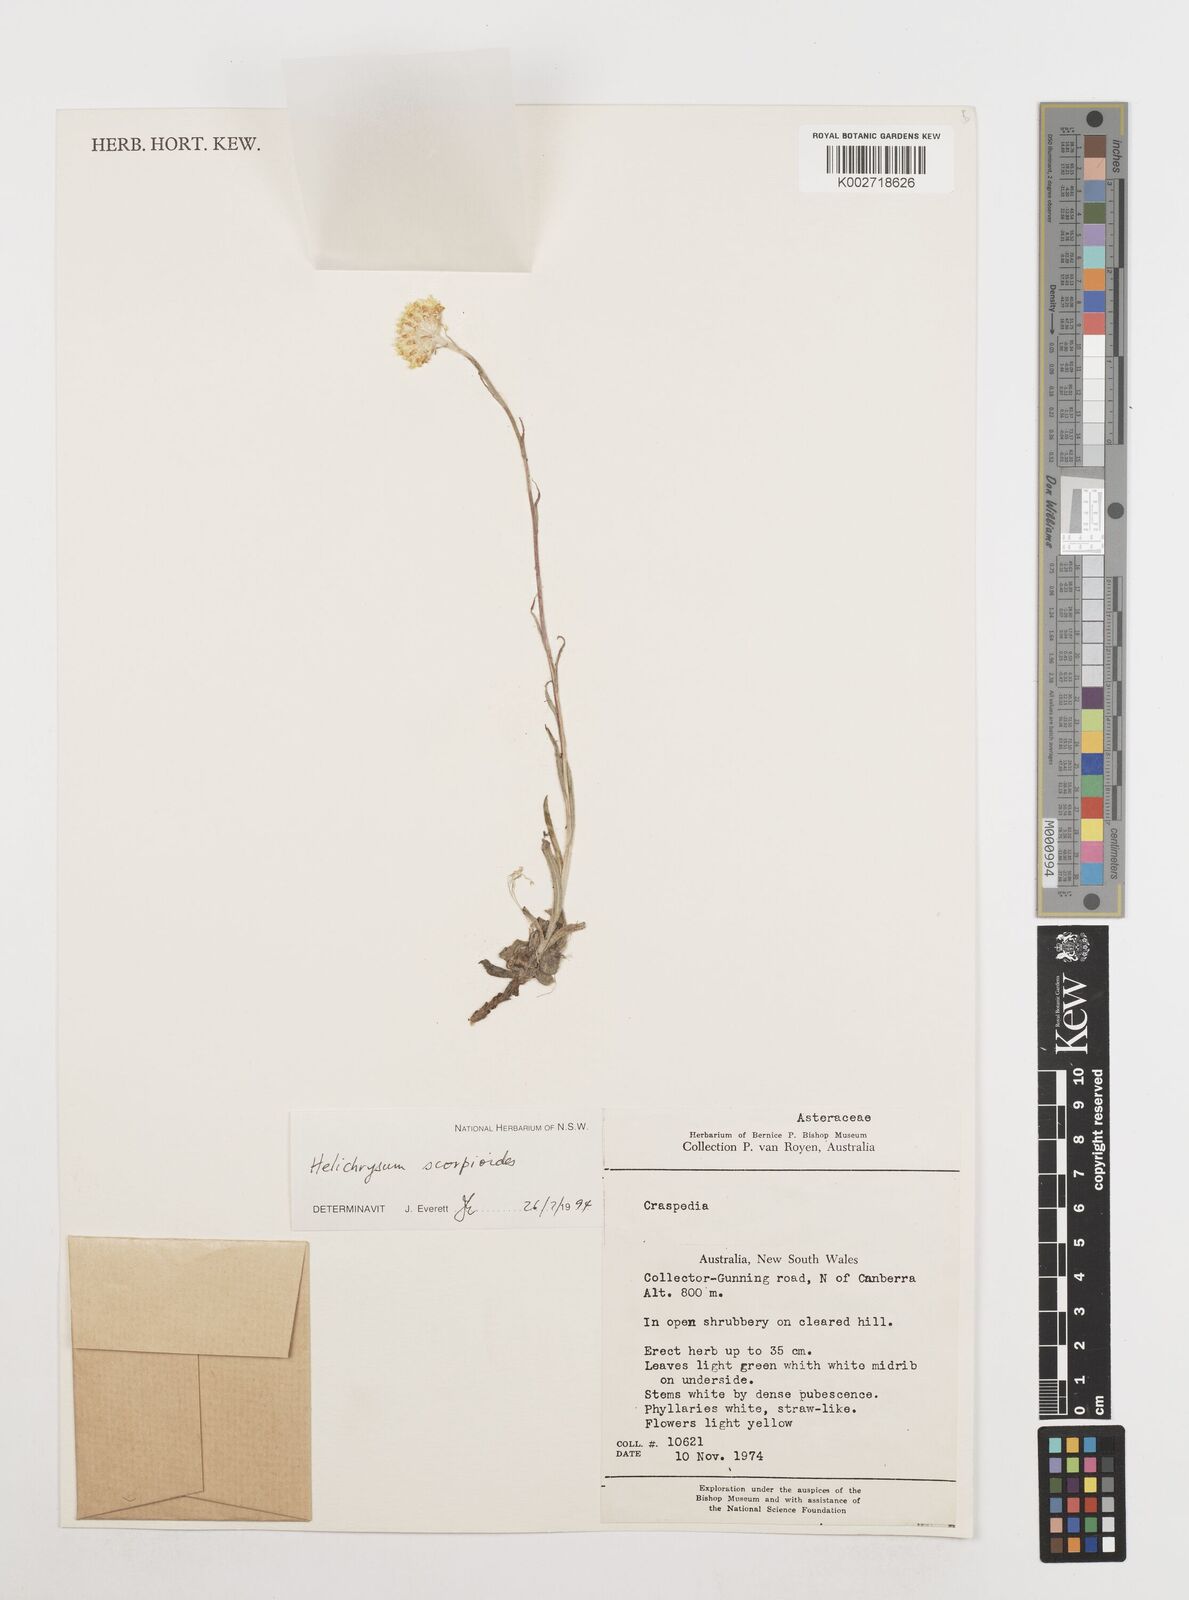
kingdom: Plantae
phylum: Tracheophyta
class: Magnoliopsida
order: Asterales
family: Asteraceae
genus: Coronidium
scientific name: Coronidium scorpioides
